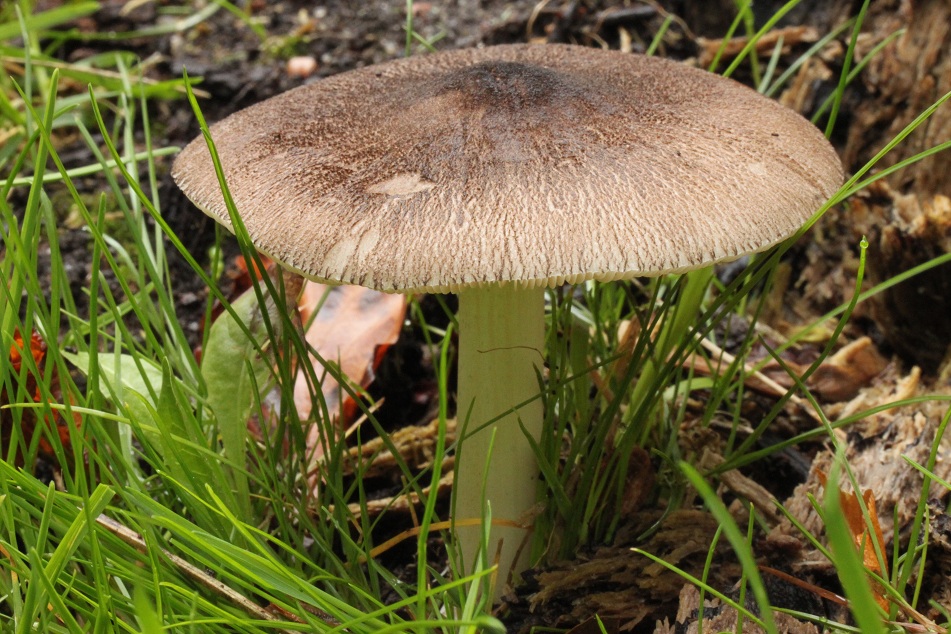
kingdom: Fungi
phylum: Basidiomycota
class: Agaricomycetes
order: Agaricales
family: Pluteaceae
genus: Pluteus
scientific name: Pluteus
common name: gråfibret skærmhat
